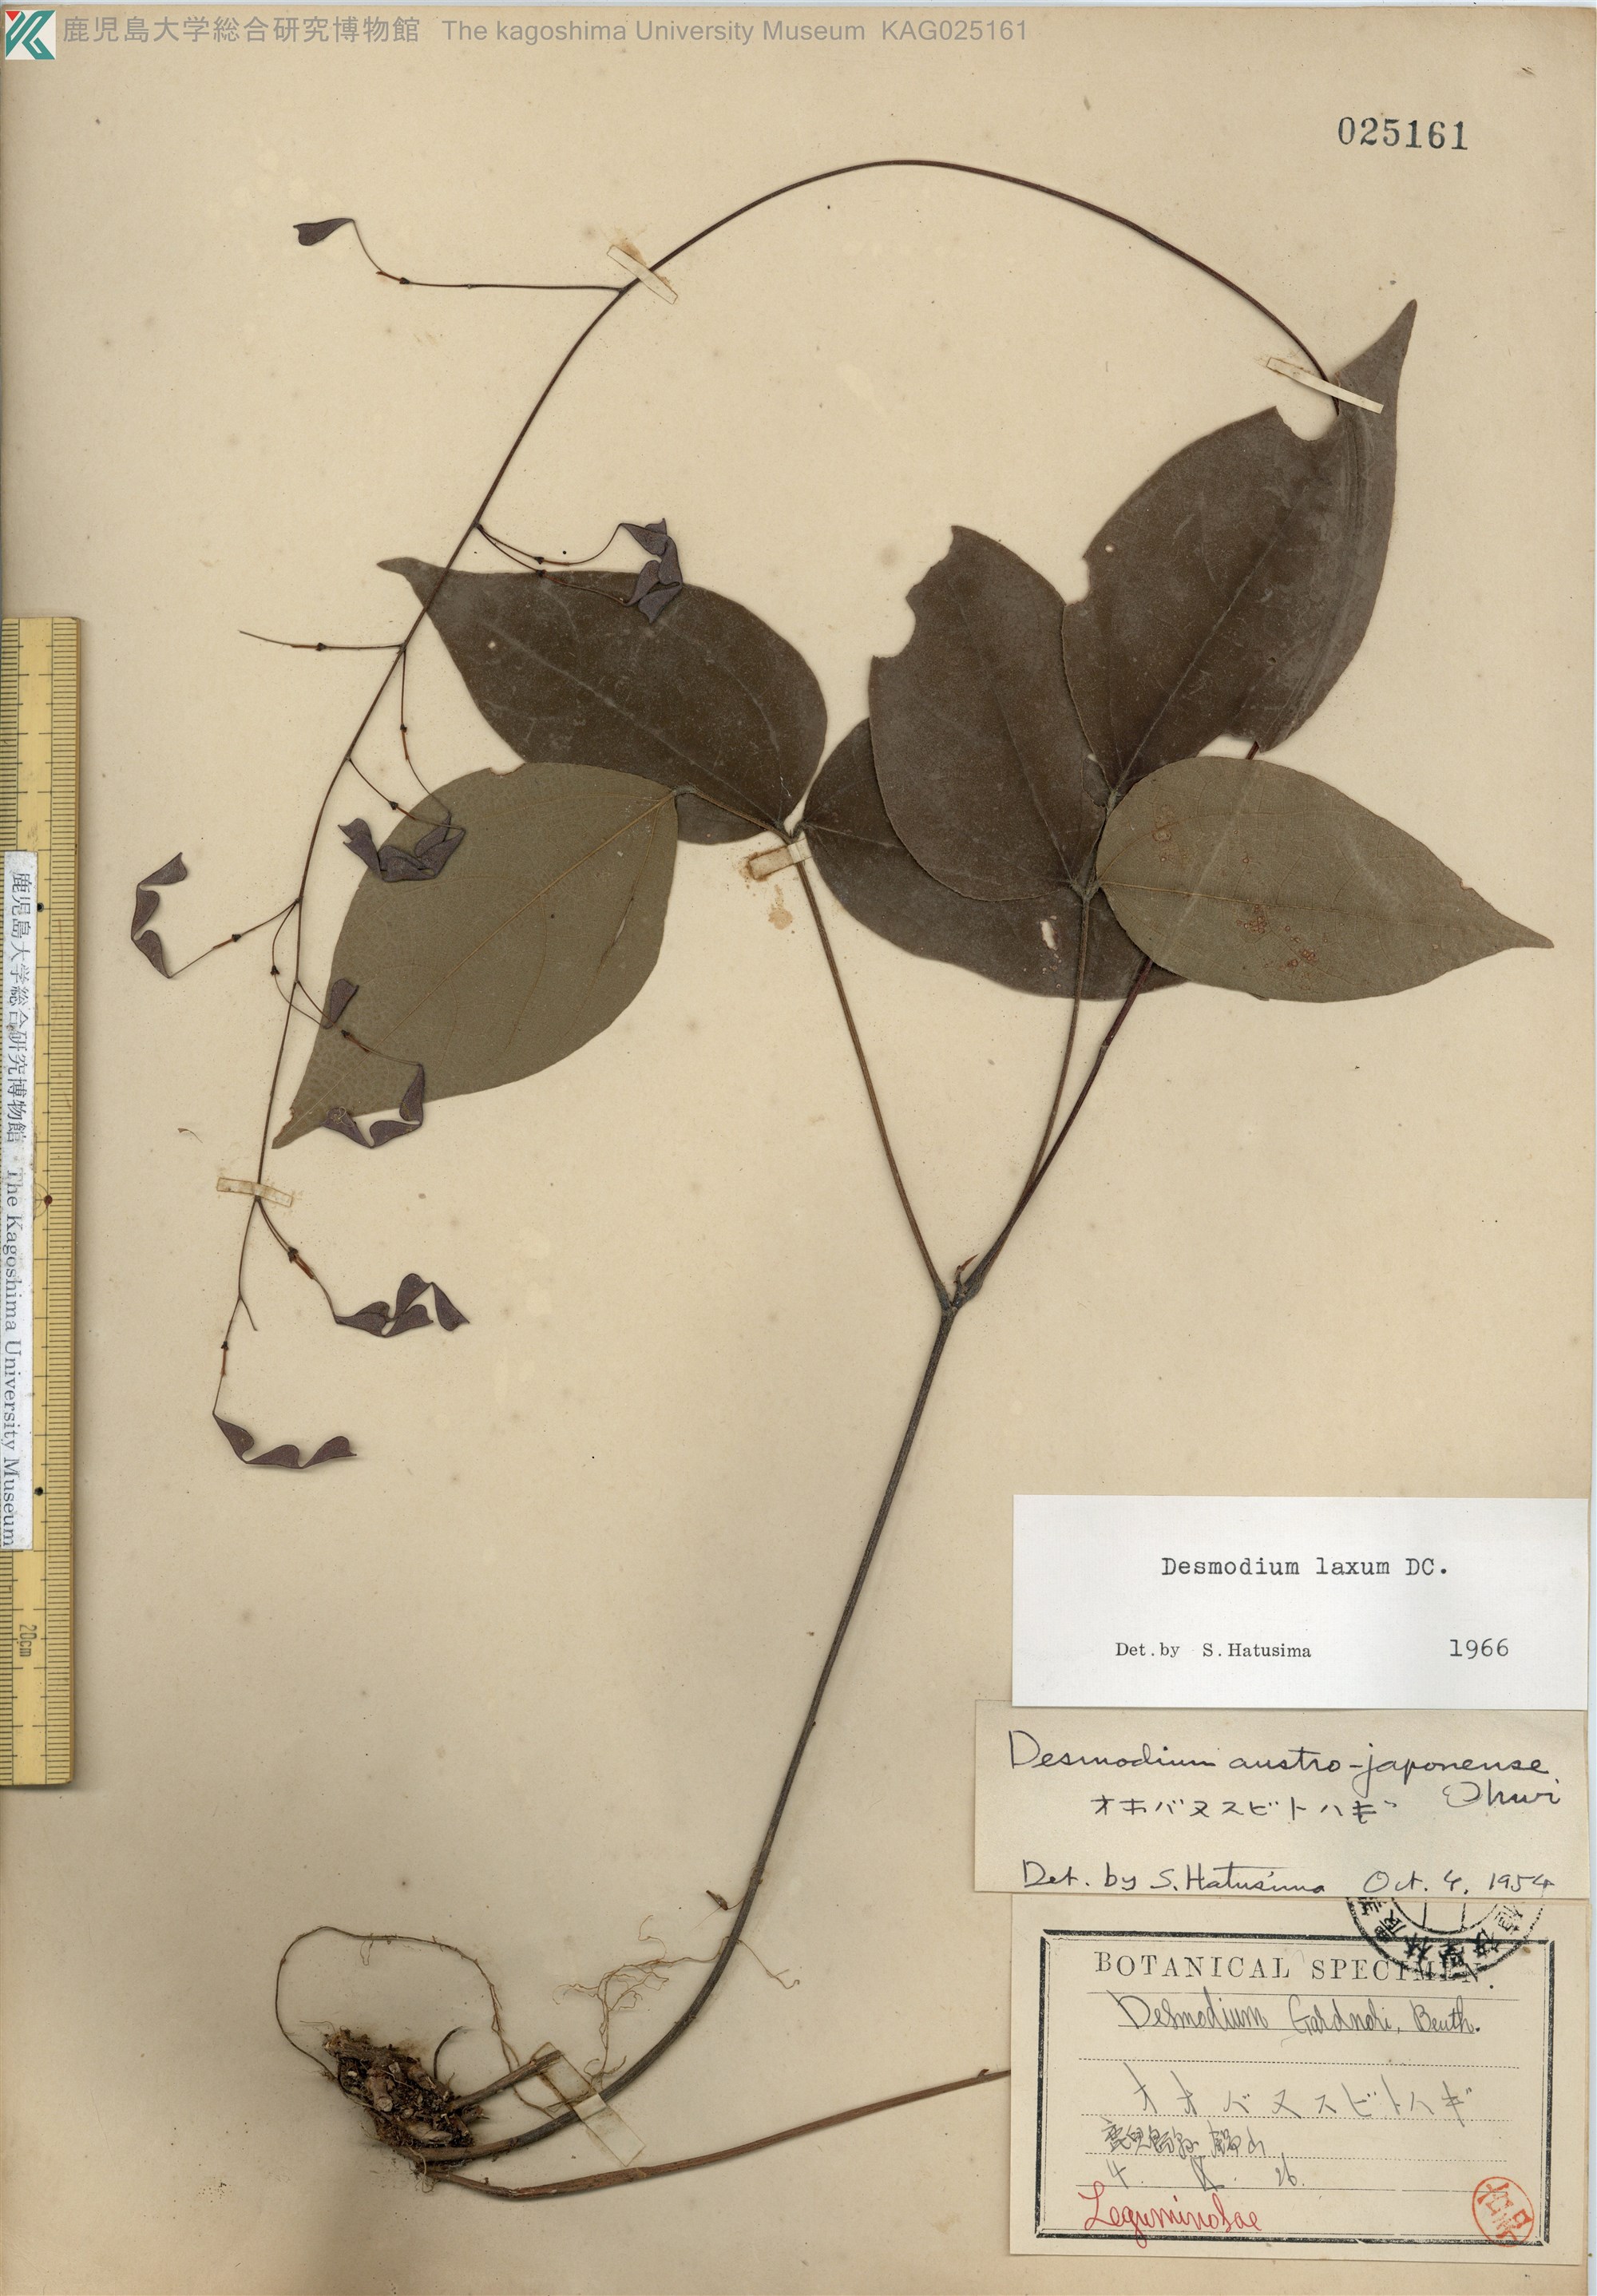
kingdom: Plantae
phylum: Tracheophyta
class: Magnoliopsida
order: Fabales
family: Fabaceae
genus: Desmodium
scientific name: Desmodium laxum
